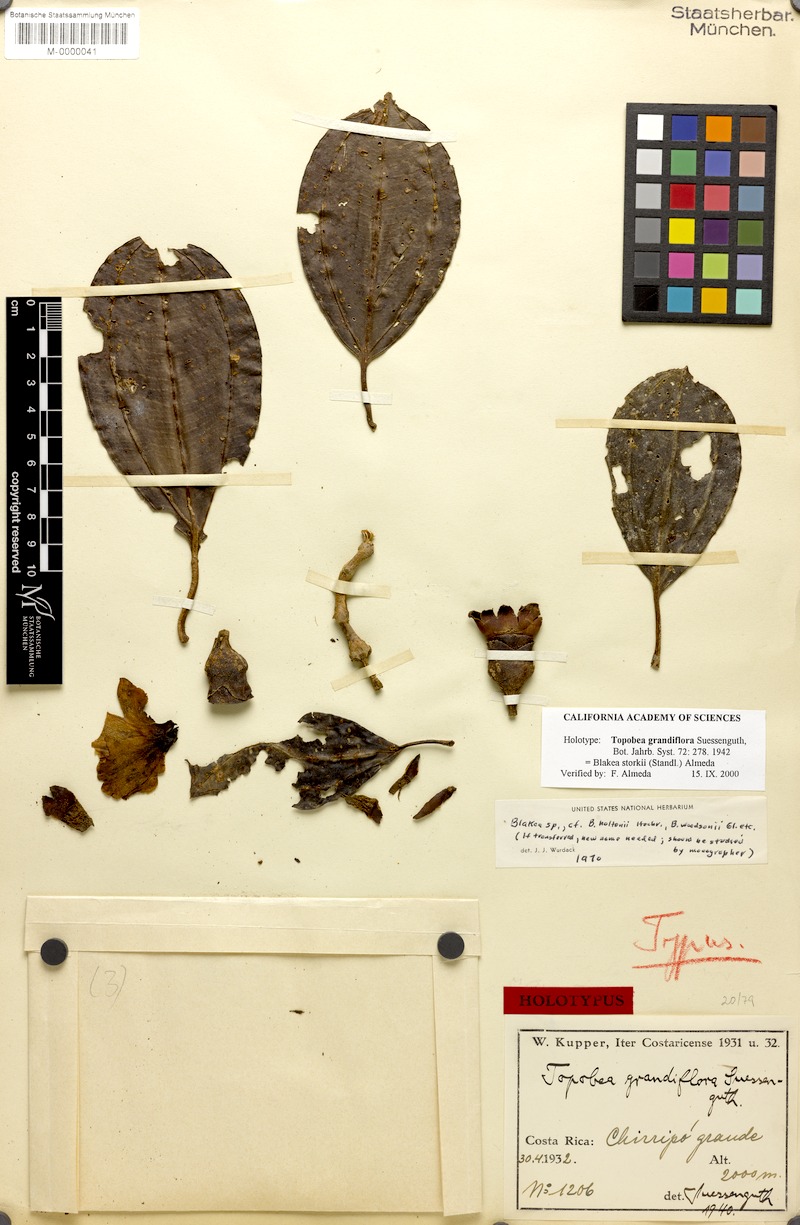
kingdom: Plantae
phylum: Tracheophyta
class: Magnoliopsida
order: Myrtales
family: Melastomataceae
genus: Blakea
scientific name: Blakea storkii
